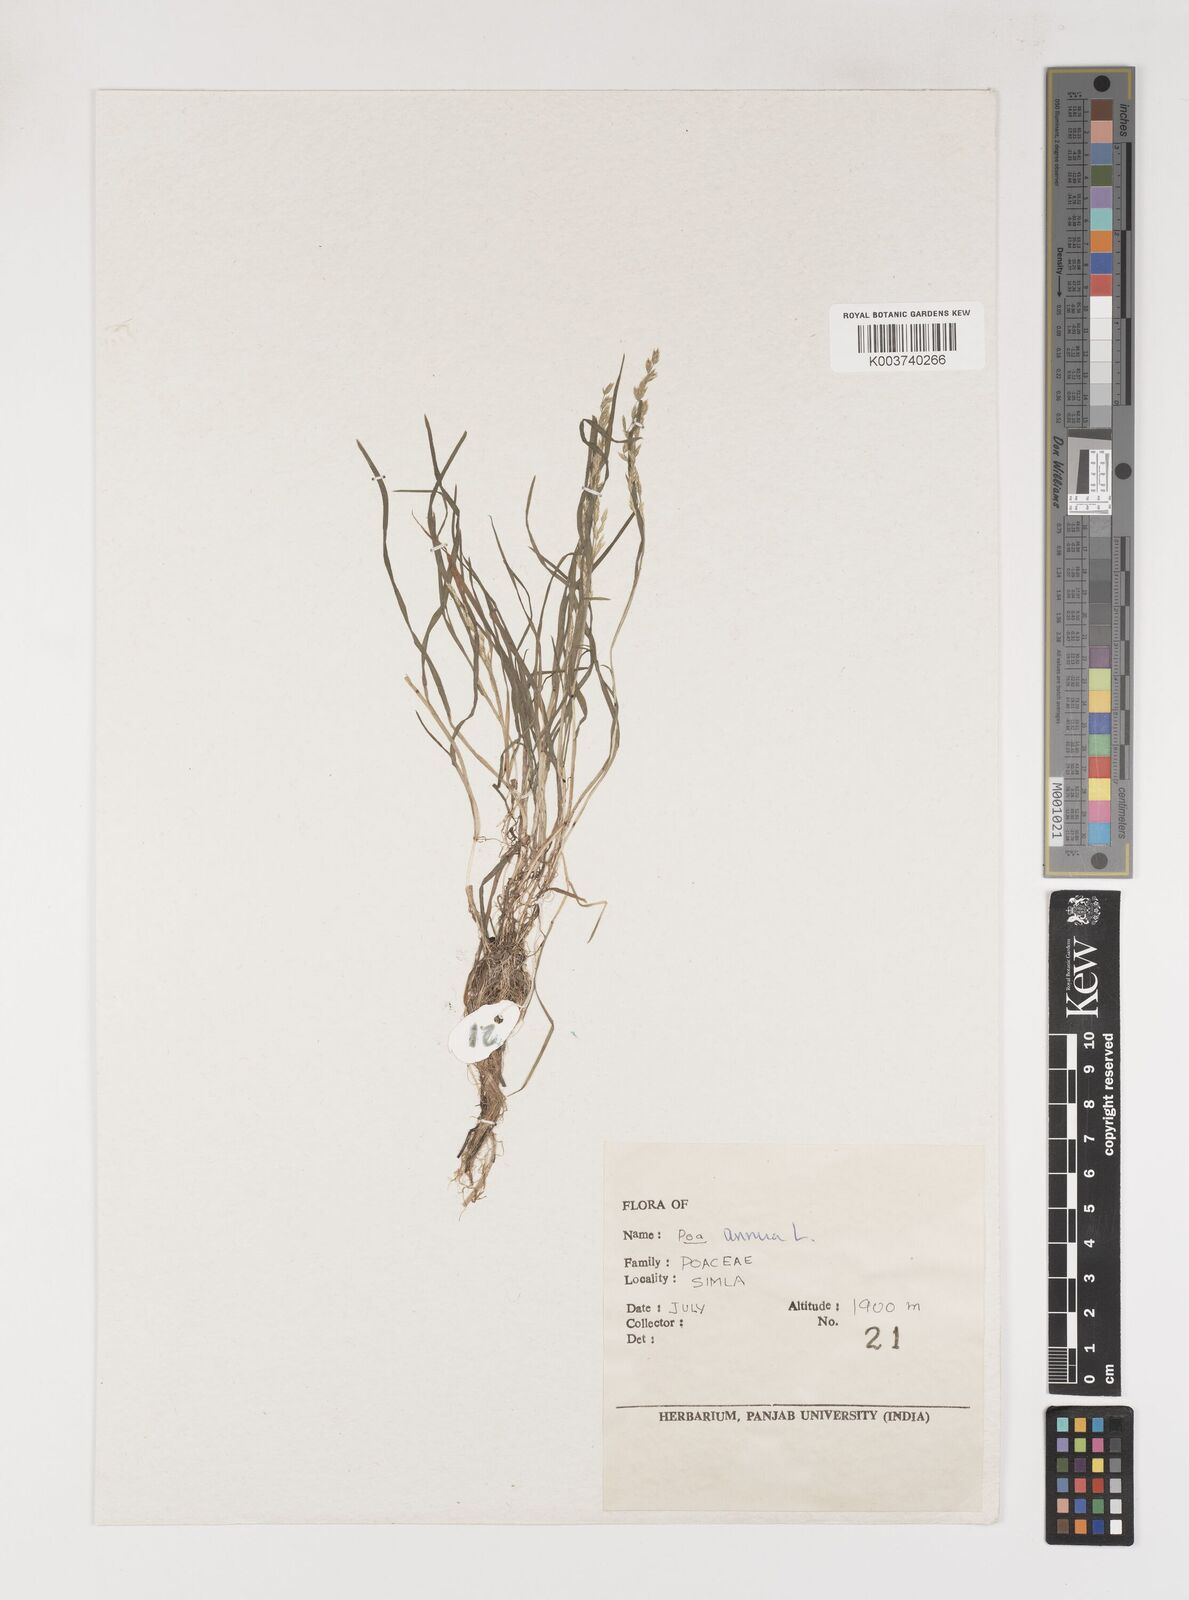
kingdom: Plantae
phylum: Tracheophyta
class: Liliopsida
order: Poales
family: Poaceae
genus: Poa
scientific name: Poa annua
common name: Annual bluegrass
